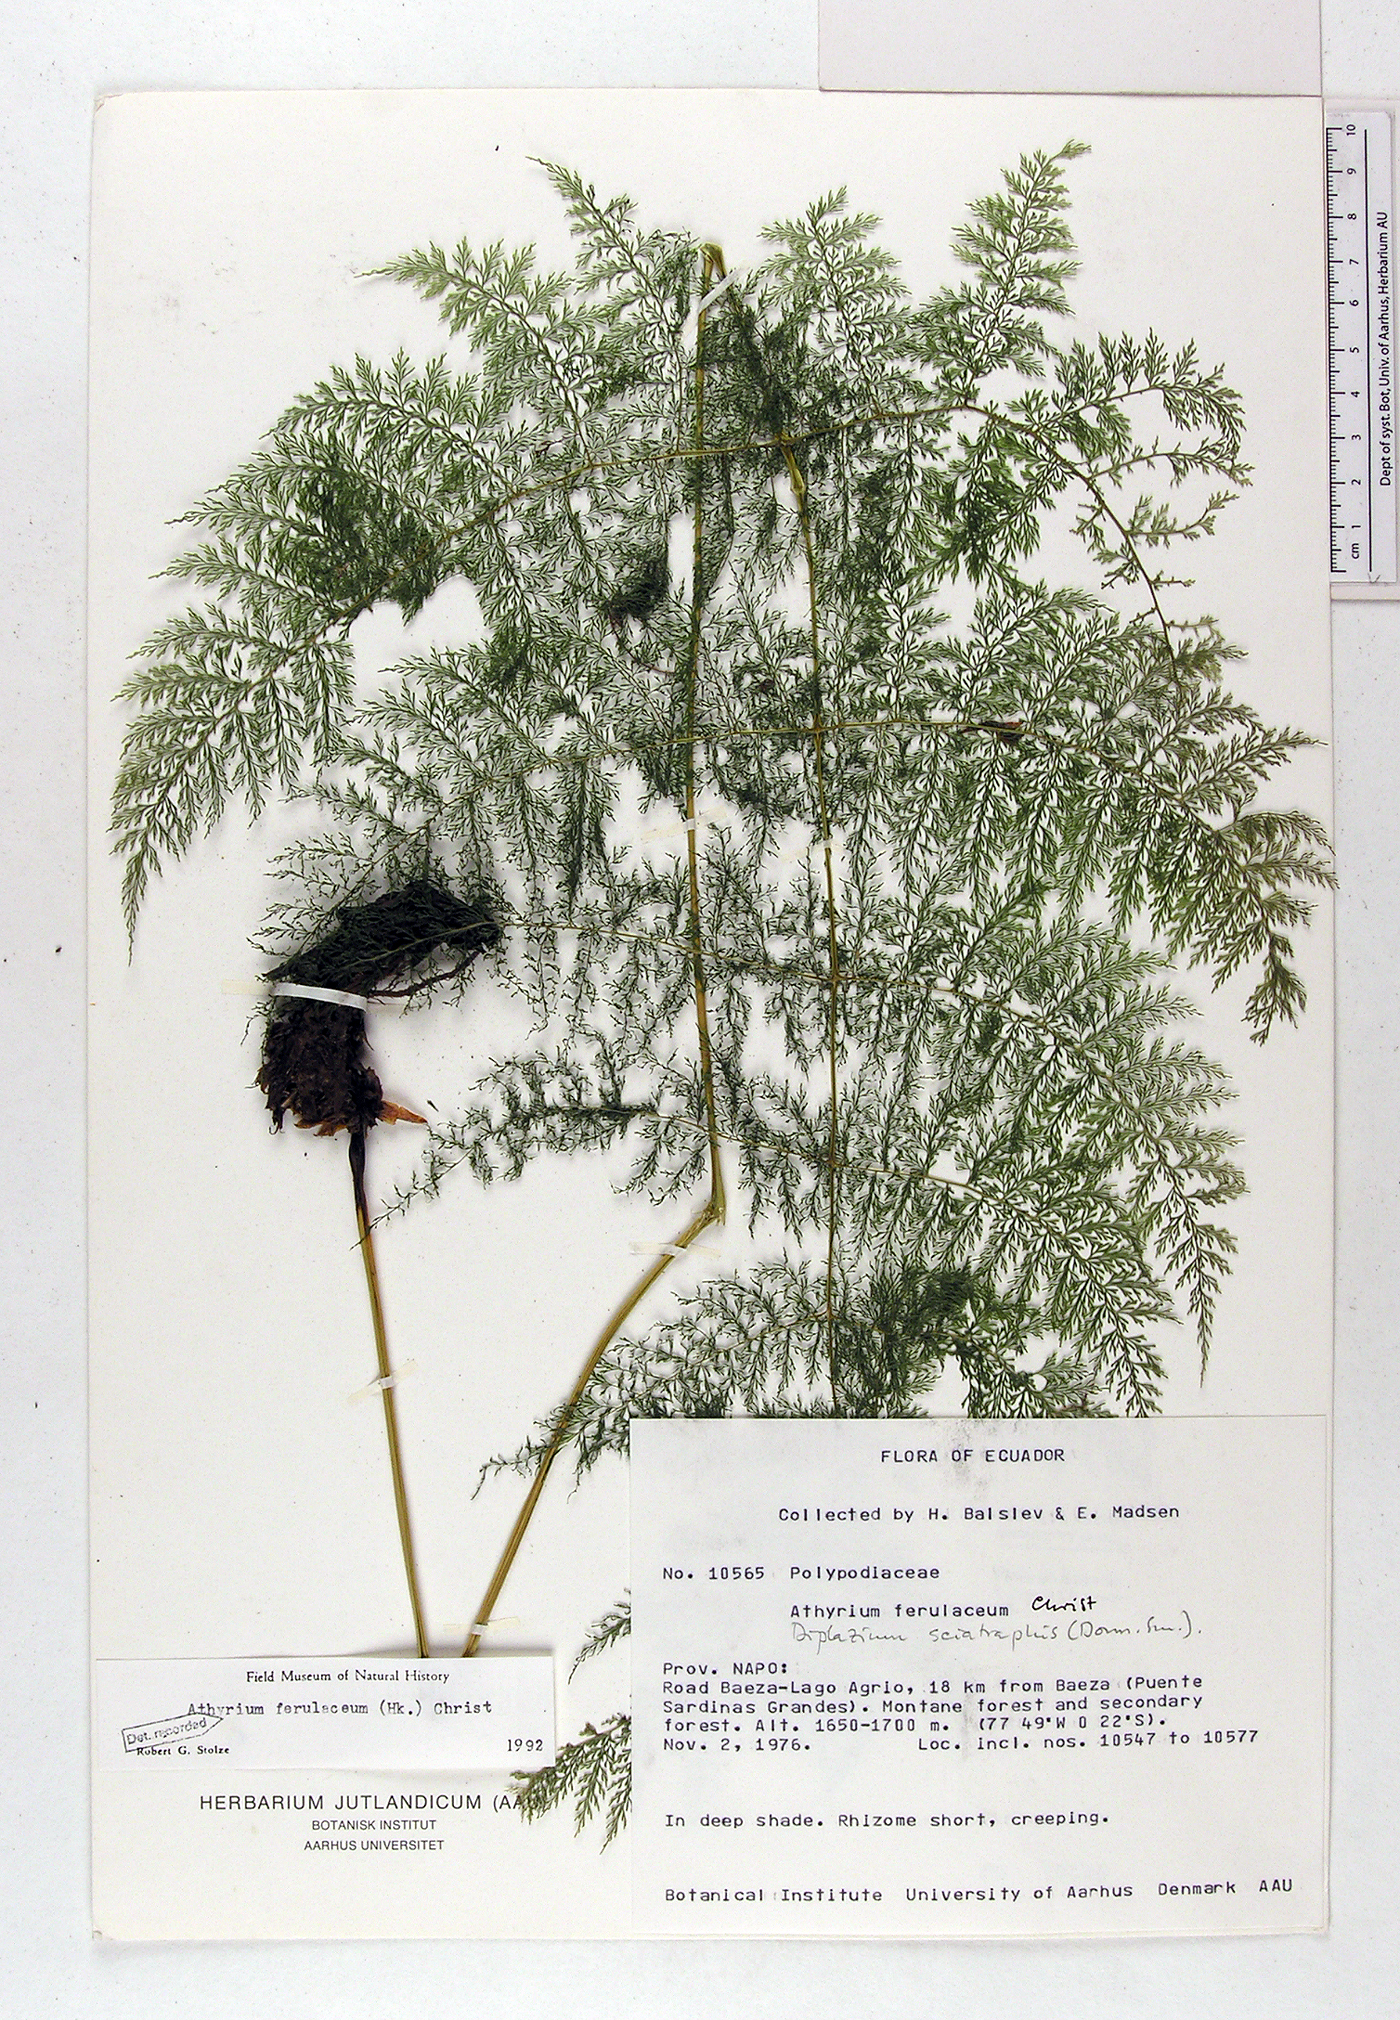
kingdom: Plantae
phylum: Tracheophyta
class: Polypodiopsida
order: Polypodiales
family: Athyriaceae
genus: Athyrium
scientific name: Athyrium ferulaceum
